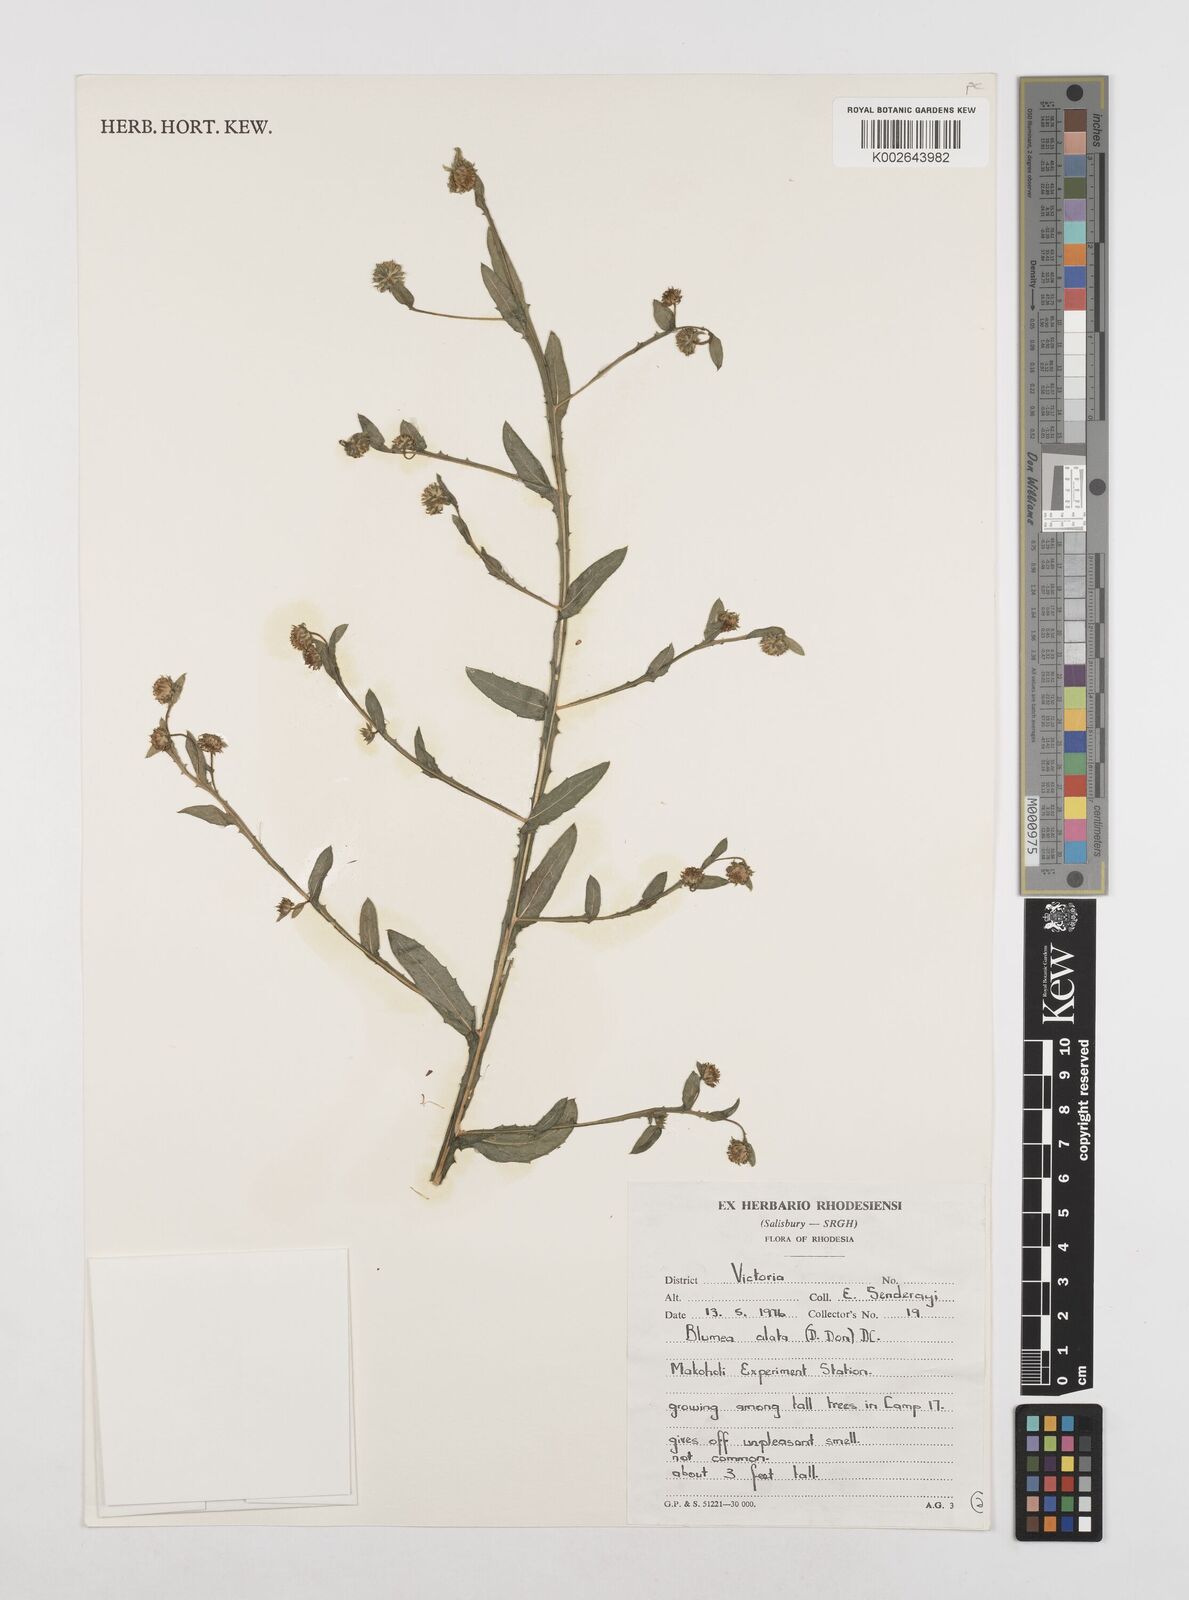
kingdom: Plantae
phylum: Tracheophyta
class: Magnoliopsida
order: Asterales
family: Asteraceae
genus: Laggera
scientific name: Laggera crispata
